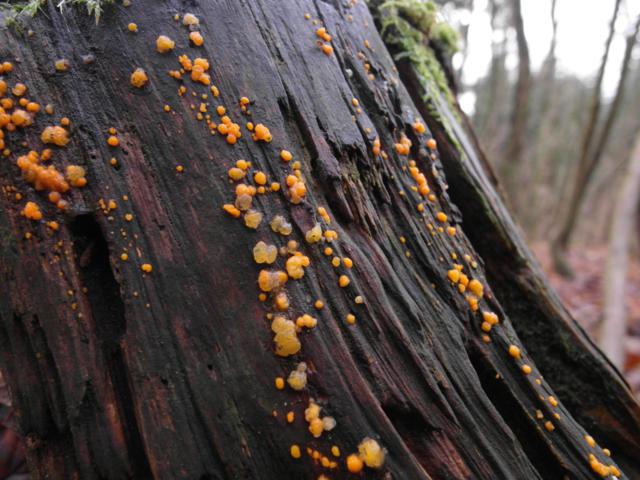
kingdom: Fungi
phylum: Basidiomycota
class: Dacrymycetes
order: Dacrymycetales
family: Dacrymycetaceae
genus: Dacrymyces
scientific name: Dacrymyces stillatus
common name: almindelig tåresvamp
